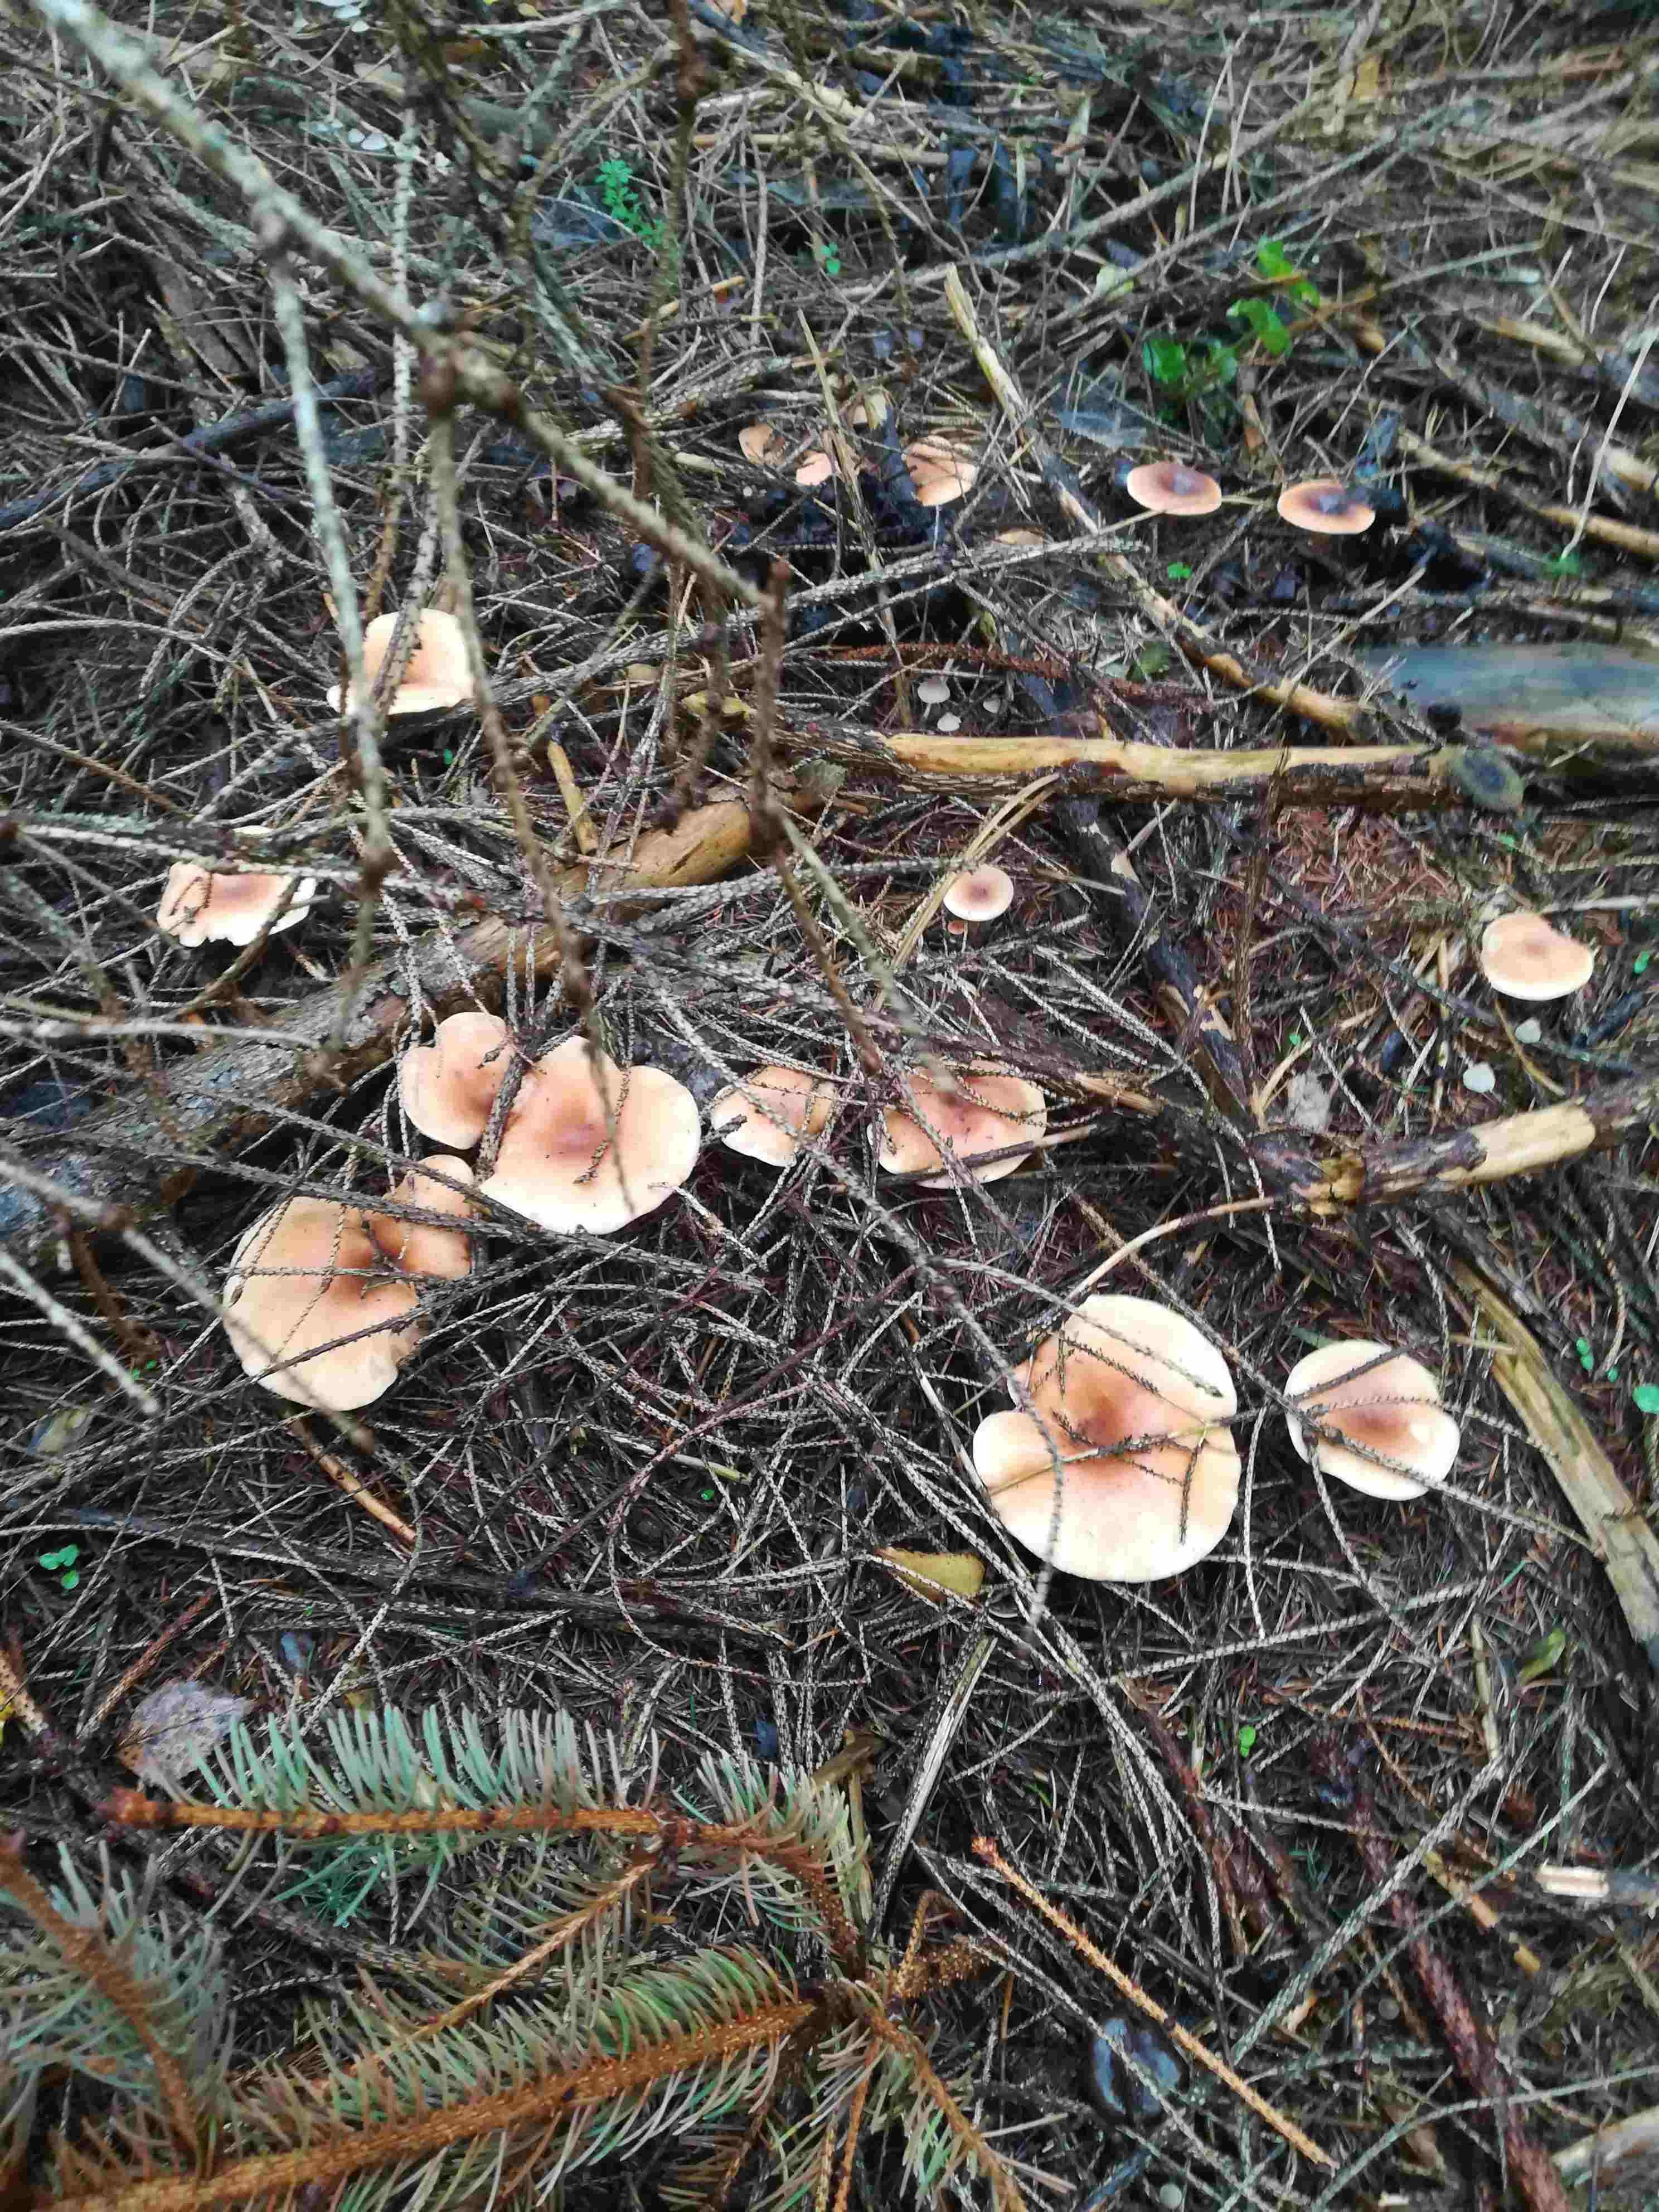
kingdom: Fungi
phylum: Basidiomycota
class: Agaricomycetes
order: Agaricales
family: Tricholomataceae
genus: Paralepista
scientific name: Paralepista flaccida
